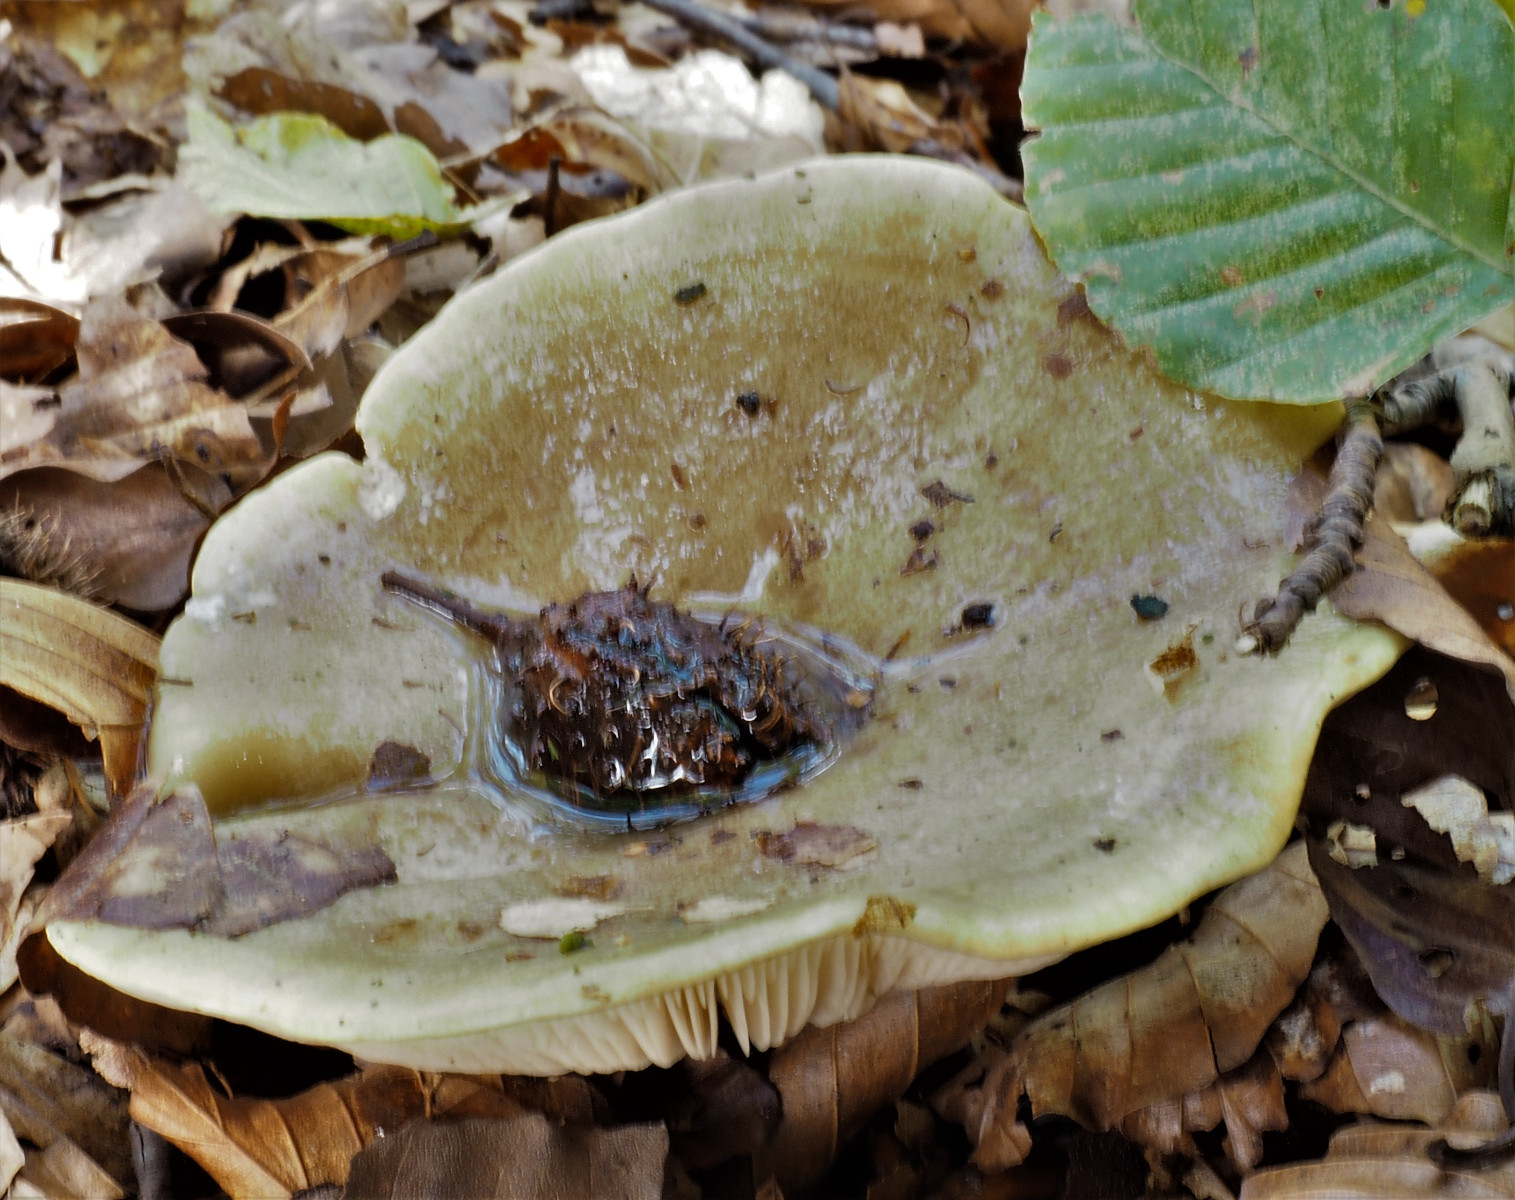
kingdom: Fungi
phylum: Basidiomycota
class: Agaricomycetes
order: Russulales
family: Russulaceae
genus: Lactarius
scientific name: Lactarius fluens
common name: lysrandet mælkehat
